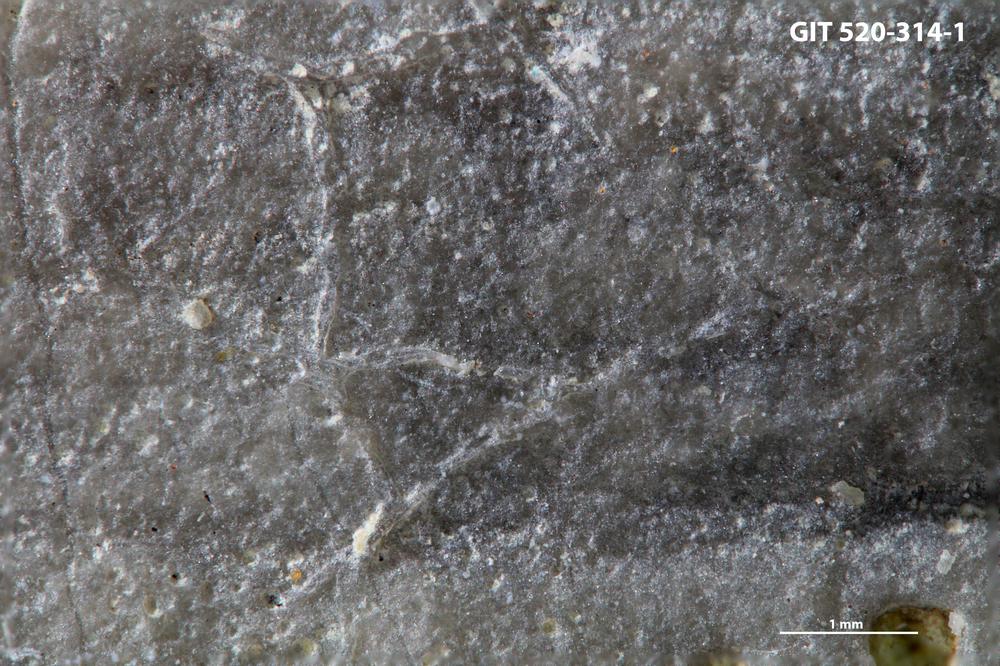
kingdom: Animalia
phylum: Bryozoa
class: Stenolaemata
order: Cyclostomatida
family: Corynotrypidae
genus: Corynotrypa
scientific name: Corynotrypa
